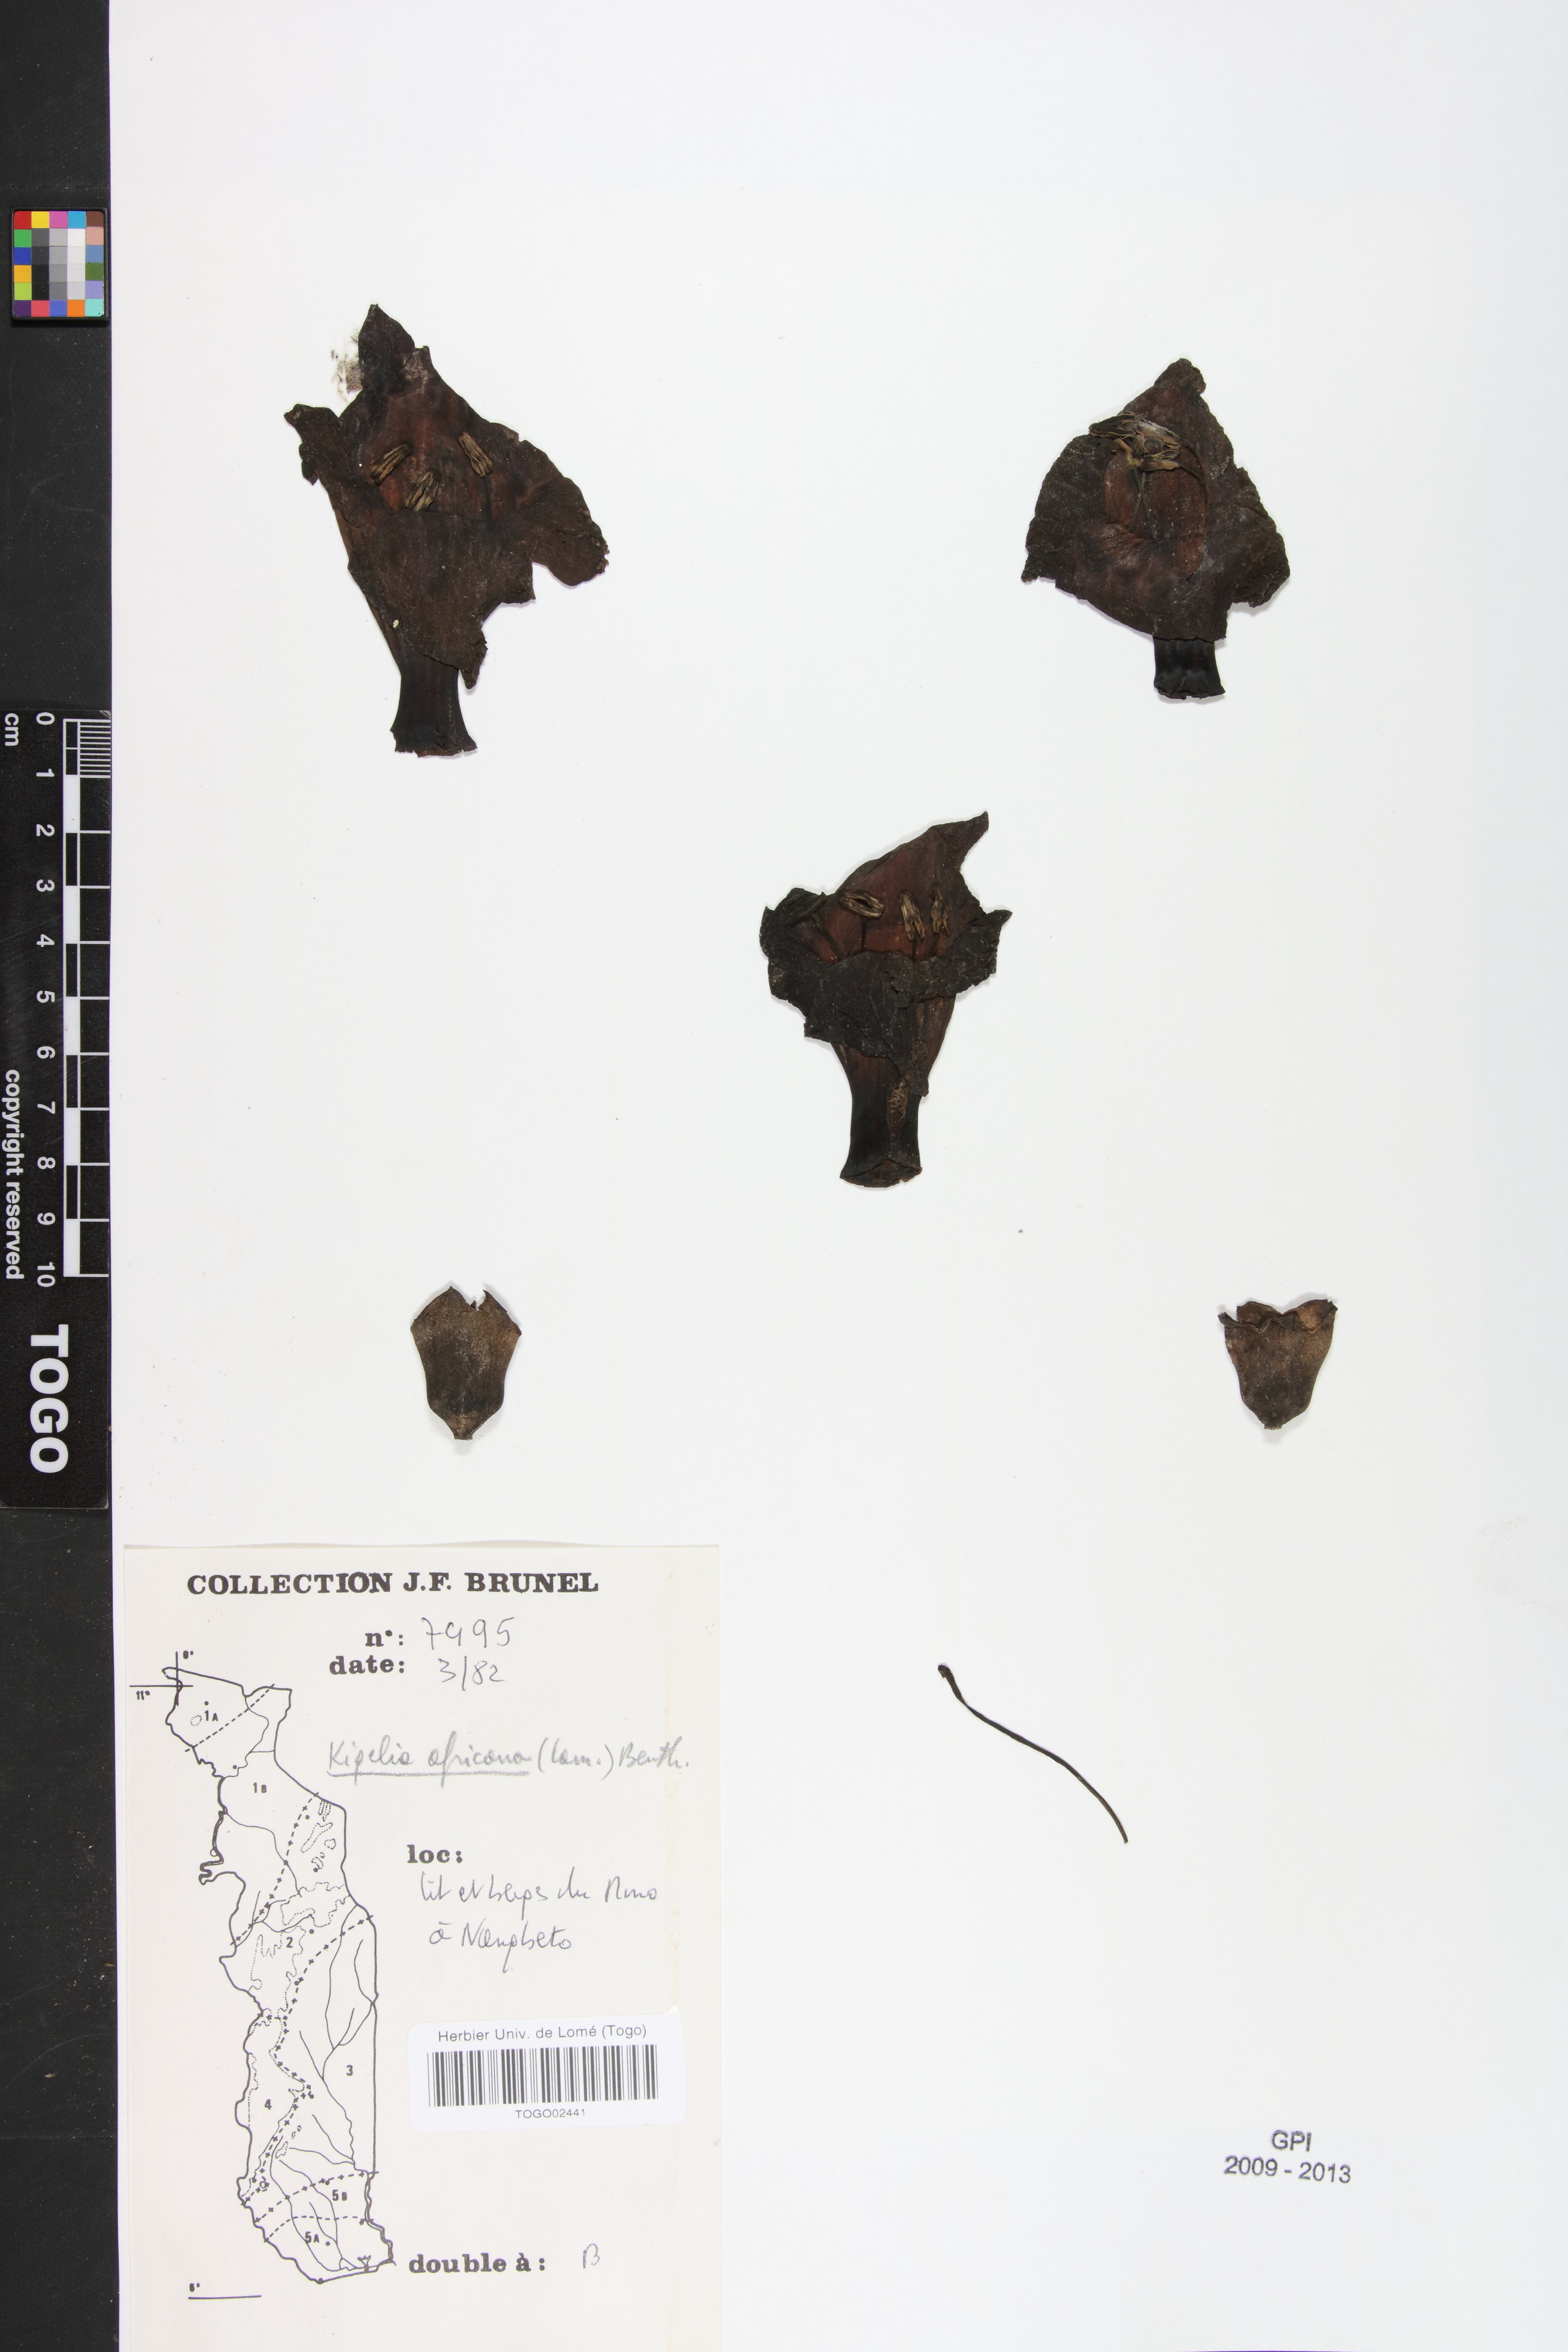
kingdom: Plantae
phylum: Tracheophyta
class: Magnoliopsida
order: Lamiales
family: Bignoniaceae
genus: Kigelia
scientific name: Kigelia africana
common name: Sausage tree
